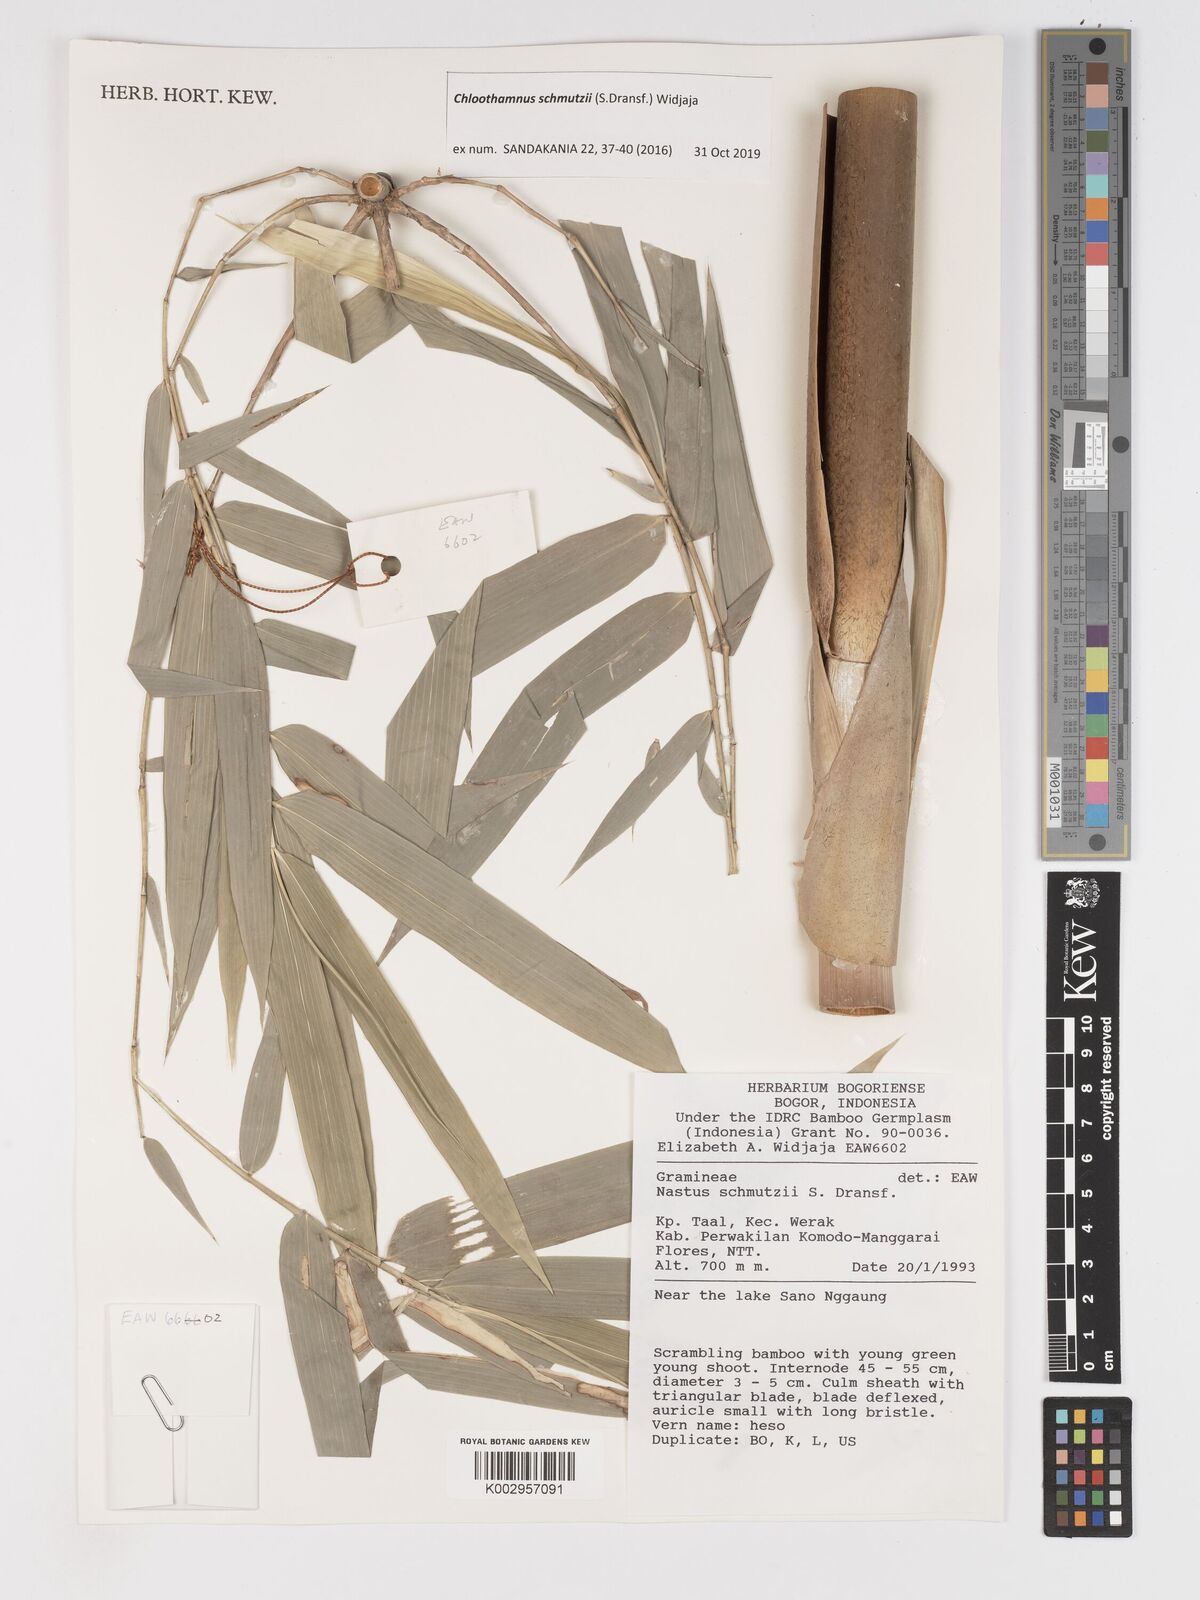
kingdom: Plantae
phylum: Tracheophyta
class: Liliopsida
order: Poales
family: Poaceae
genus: Chloothamnus
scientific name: Chloothamnus schmutzii
